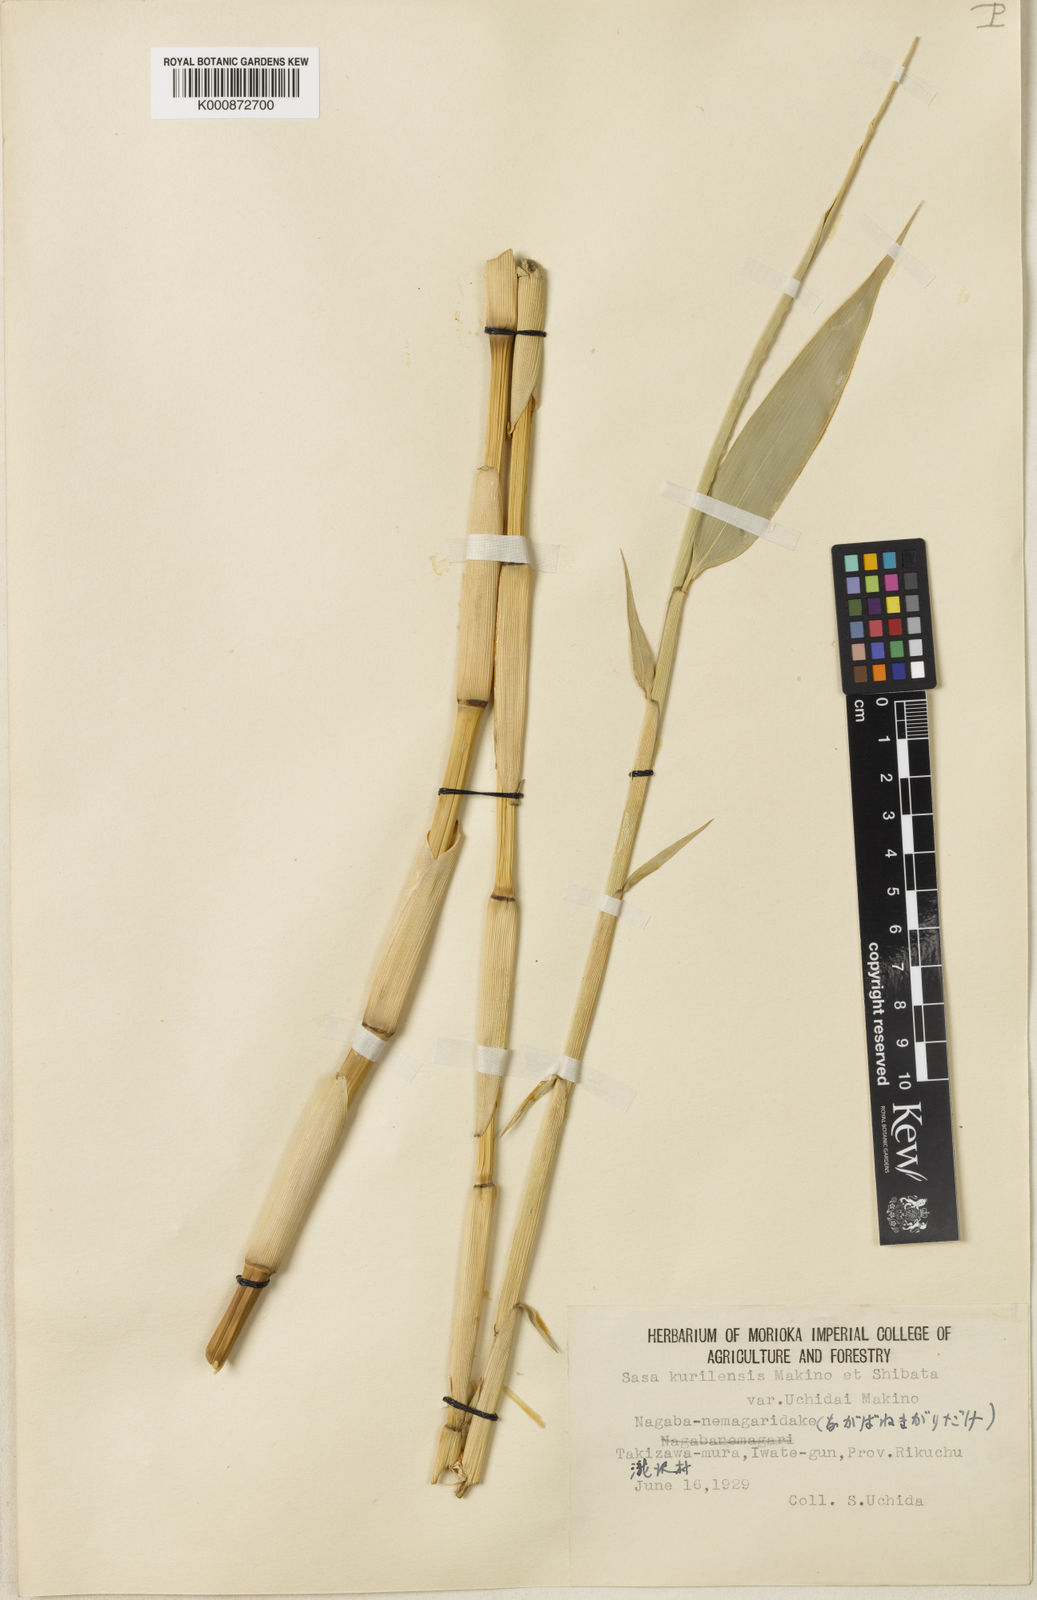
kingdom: Plantae
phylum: Tracheophyta
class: Liliopsida
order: Poales
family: Poaceae
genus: Sasa
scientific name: Sasa kurilensis
